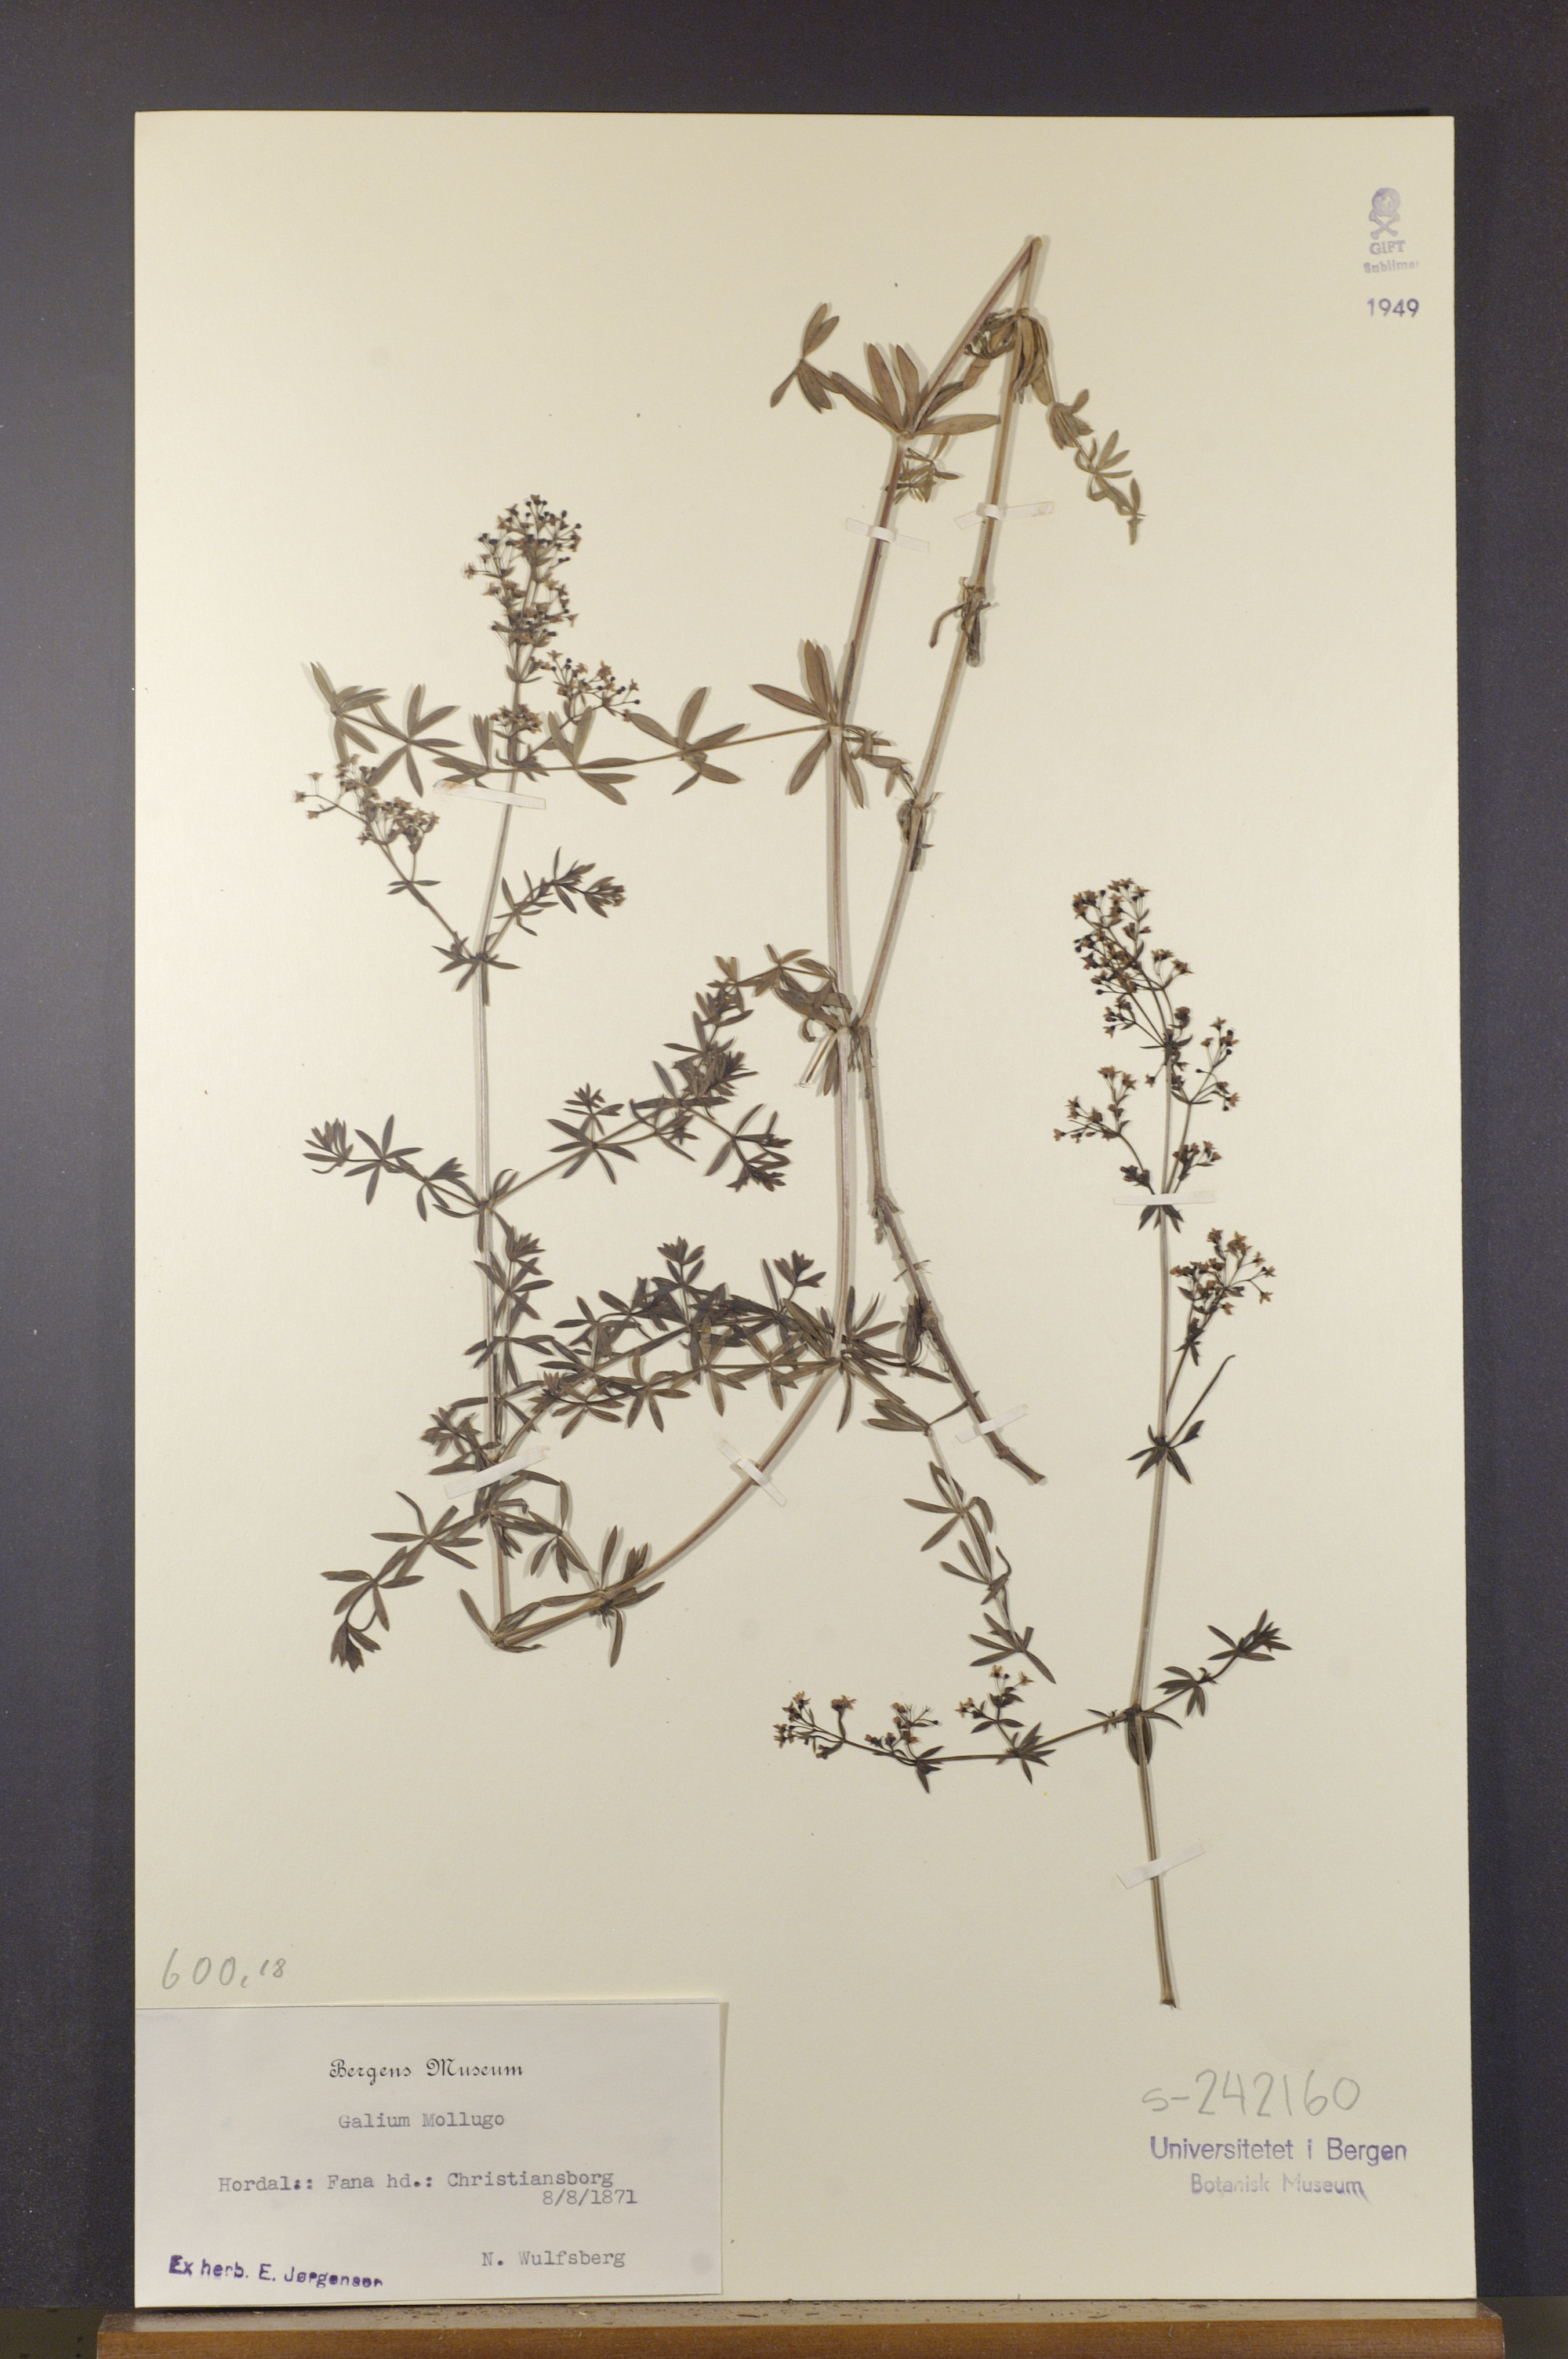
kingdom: Plantae
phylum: Tracheophyta
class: Magnoliopsida
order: Gentianales
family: Rubiaceae
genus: Galium
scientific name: Galium mollugo
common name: Hedge bedstraw
